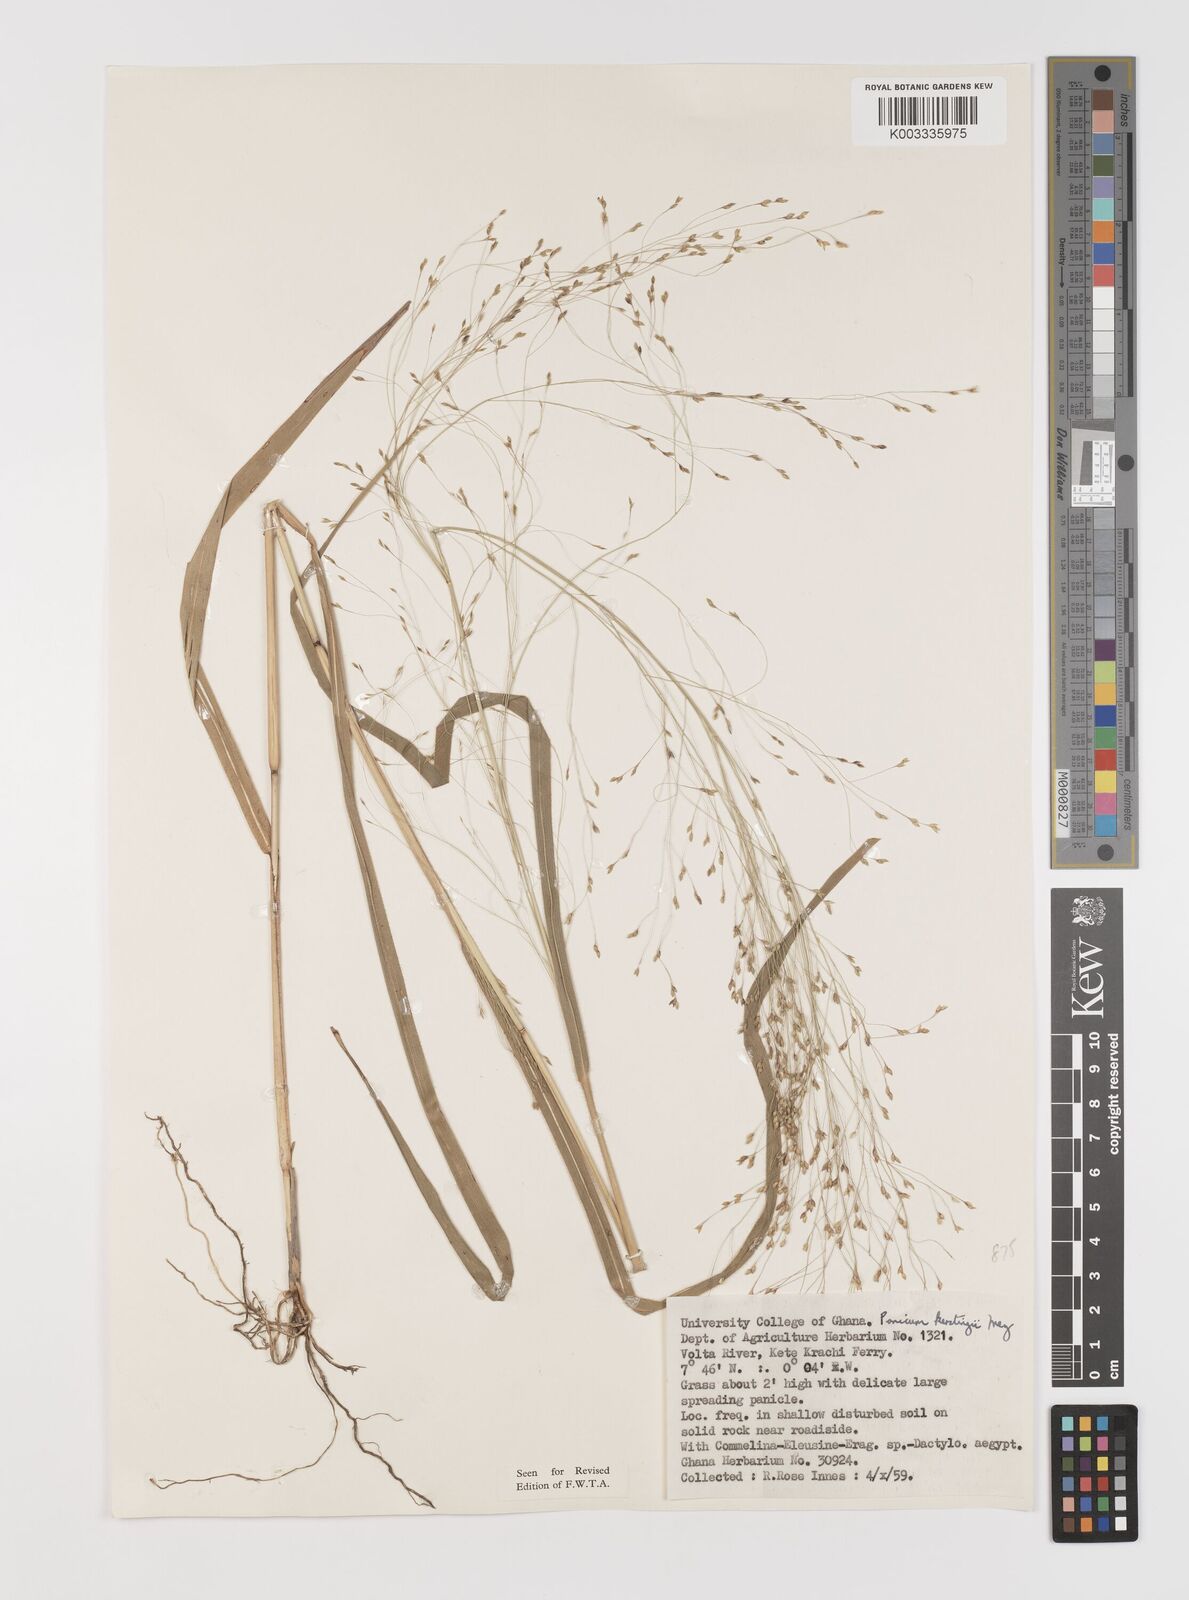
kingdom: Plantae
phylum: Tracheophyta
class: Liliopsida
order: Poales
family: Poaceae
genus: Panicum
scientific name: Panicum pansum
